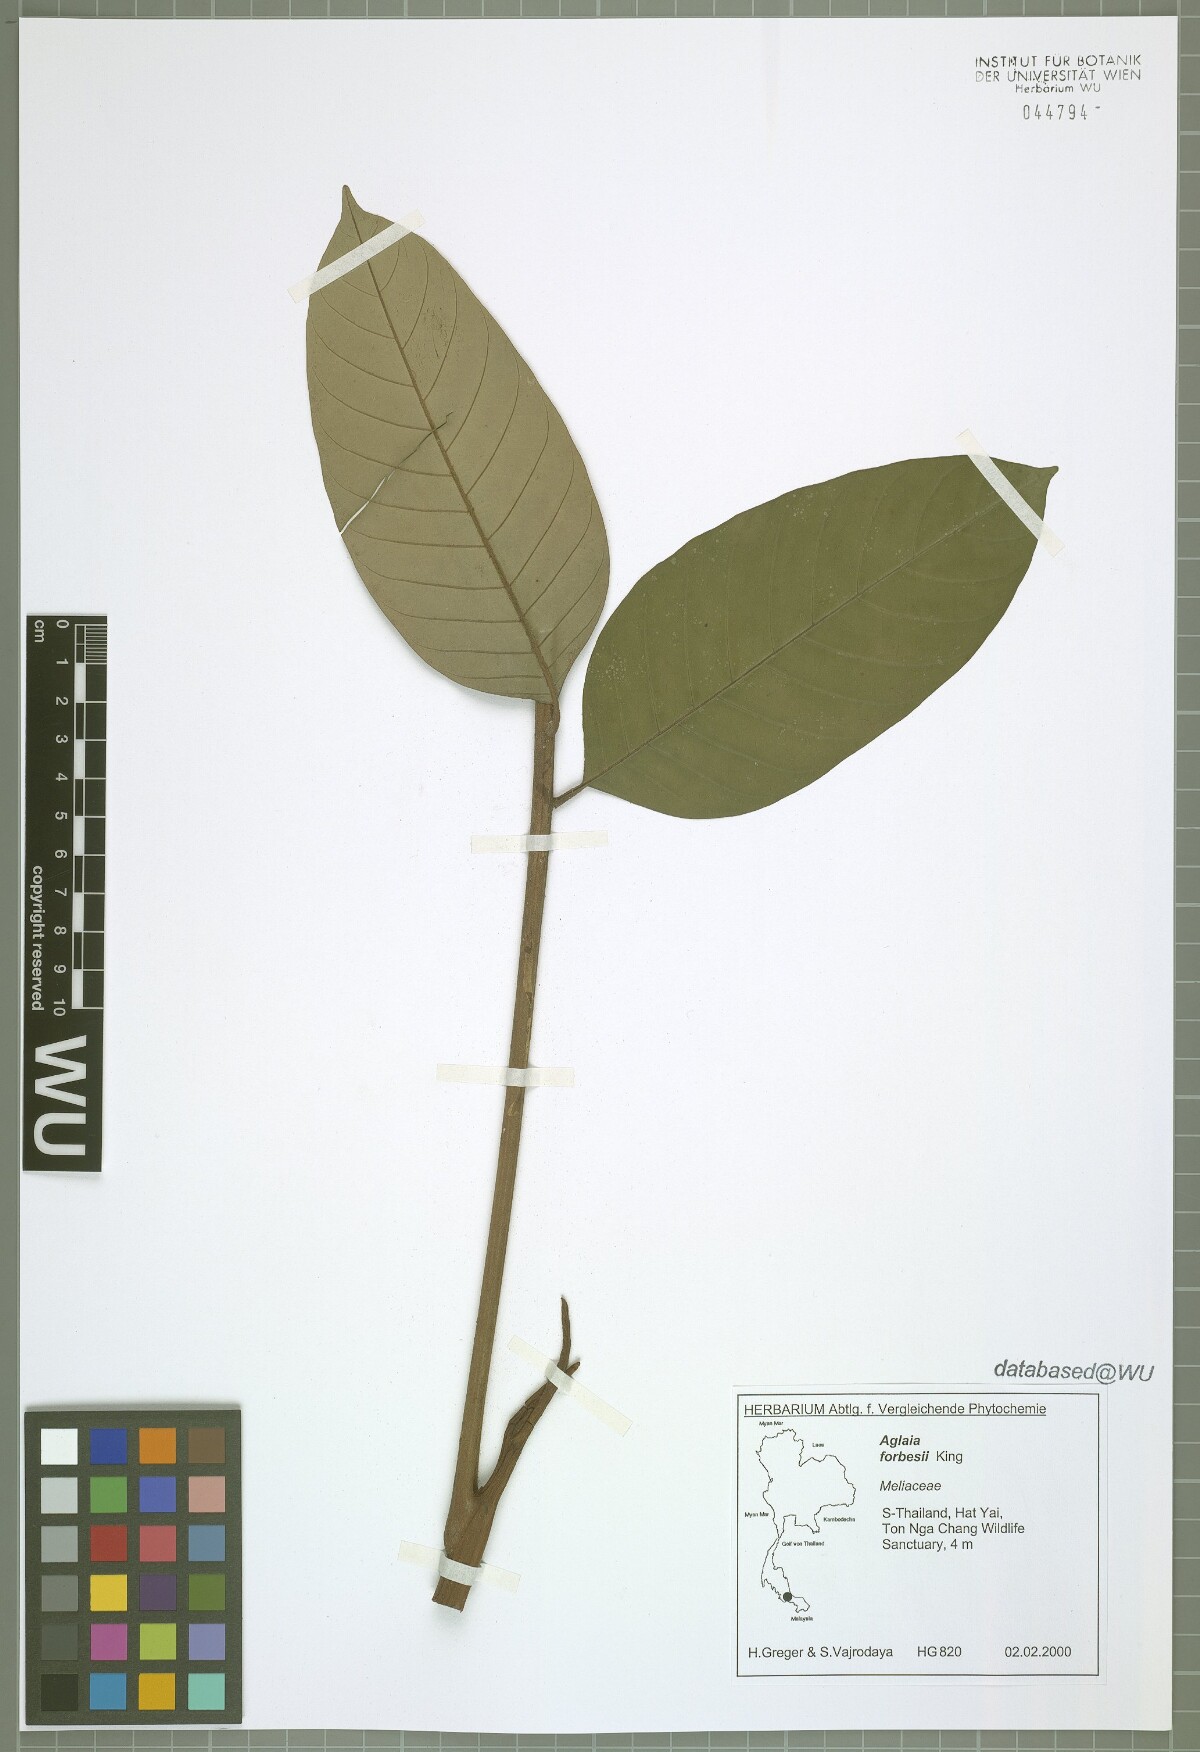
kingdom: Plantae
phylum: Tracheophyta
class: Magnoliopsida
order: Sapindales
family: Meliaceae
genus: Aglaia
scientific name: Aglaia forbesii
